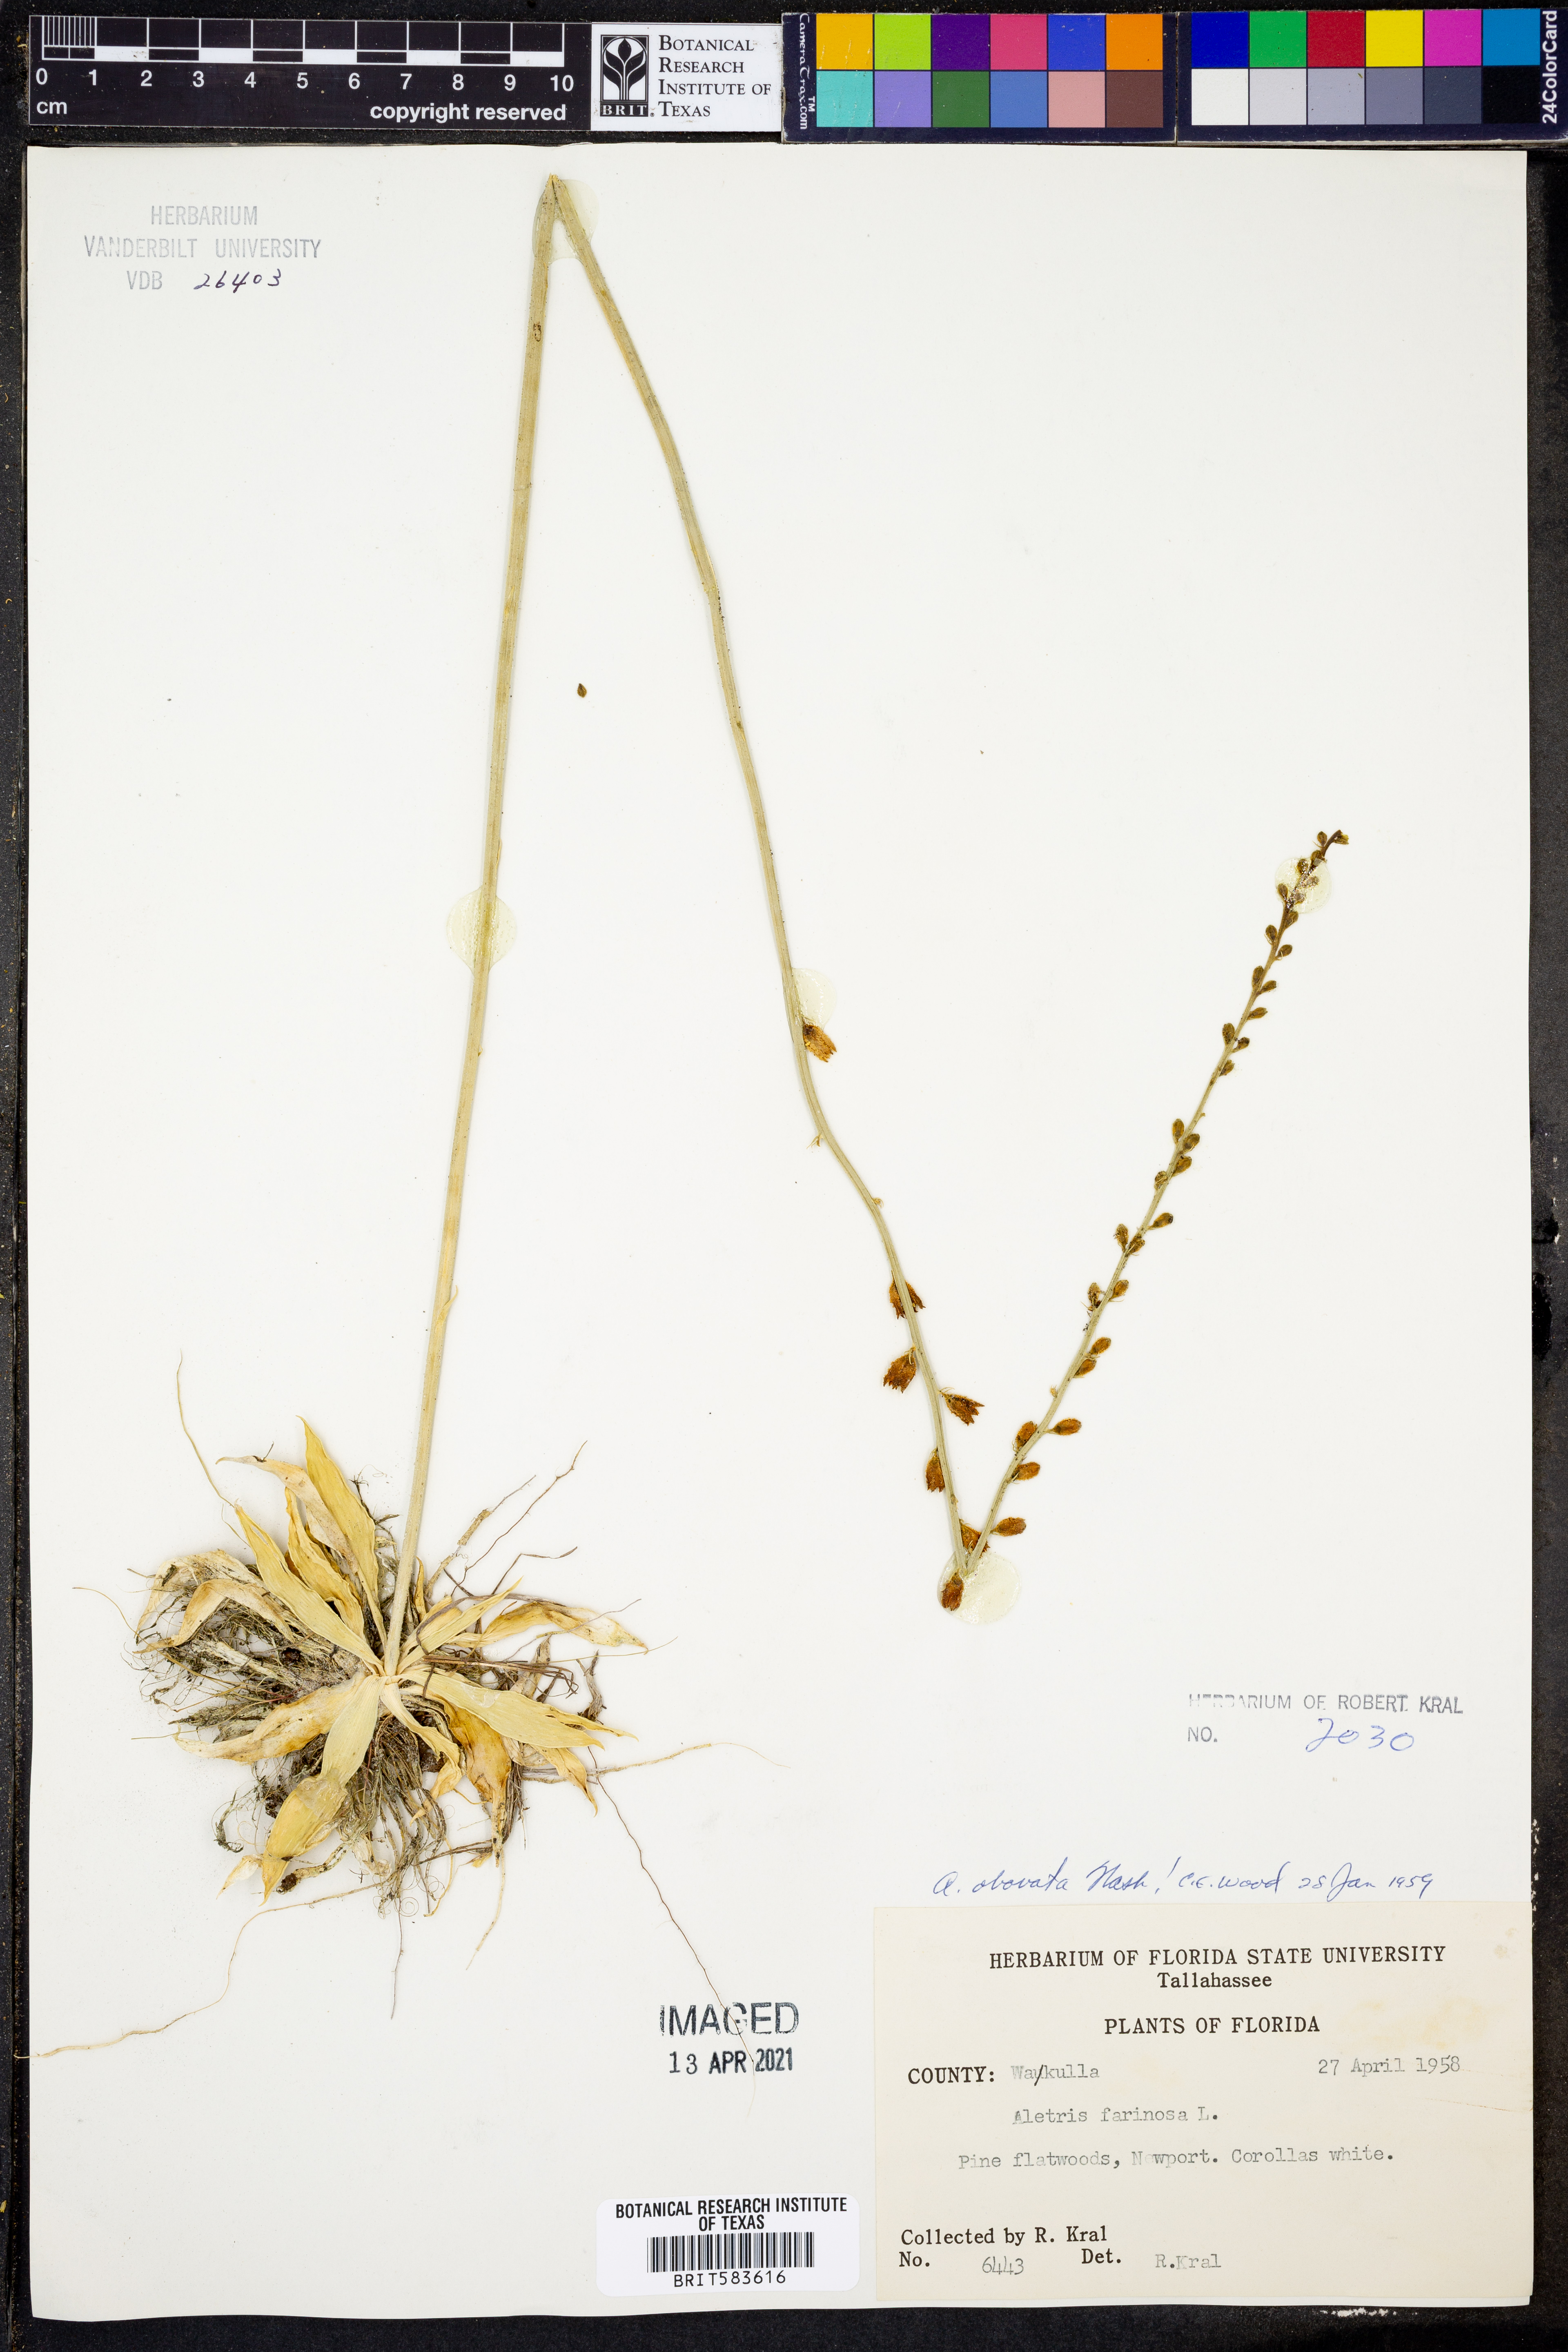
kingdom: Plantae
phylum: Tracheophyta
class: Liliopsida
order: Dioscoreales
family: Nartheciaceae
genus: Aletris
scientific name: Aletris obovata
